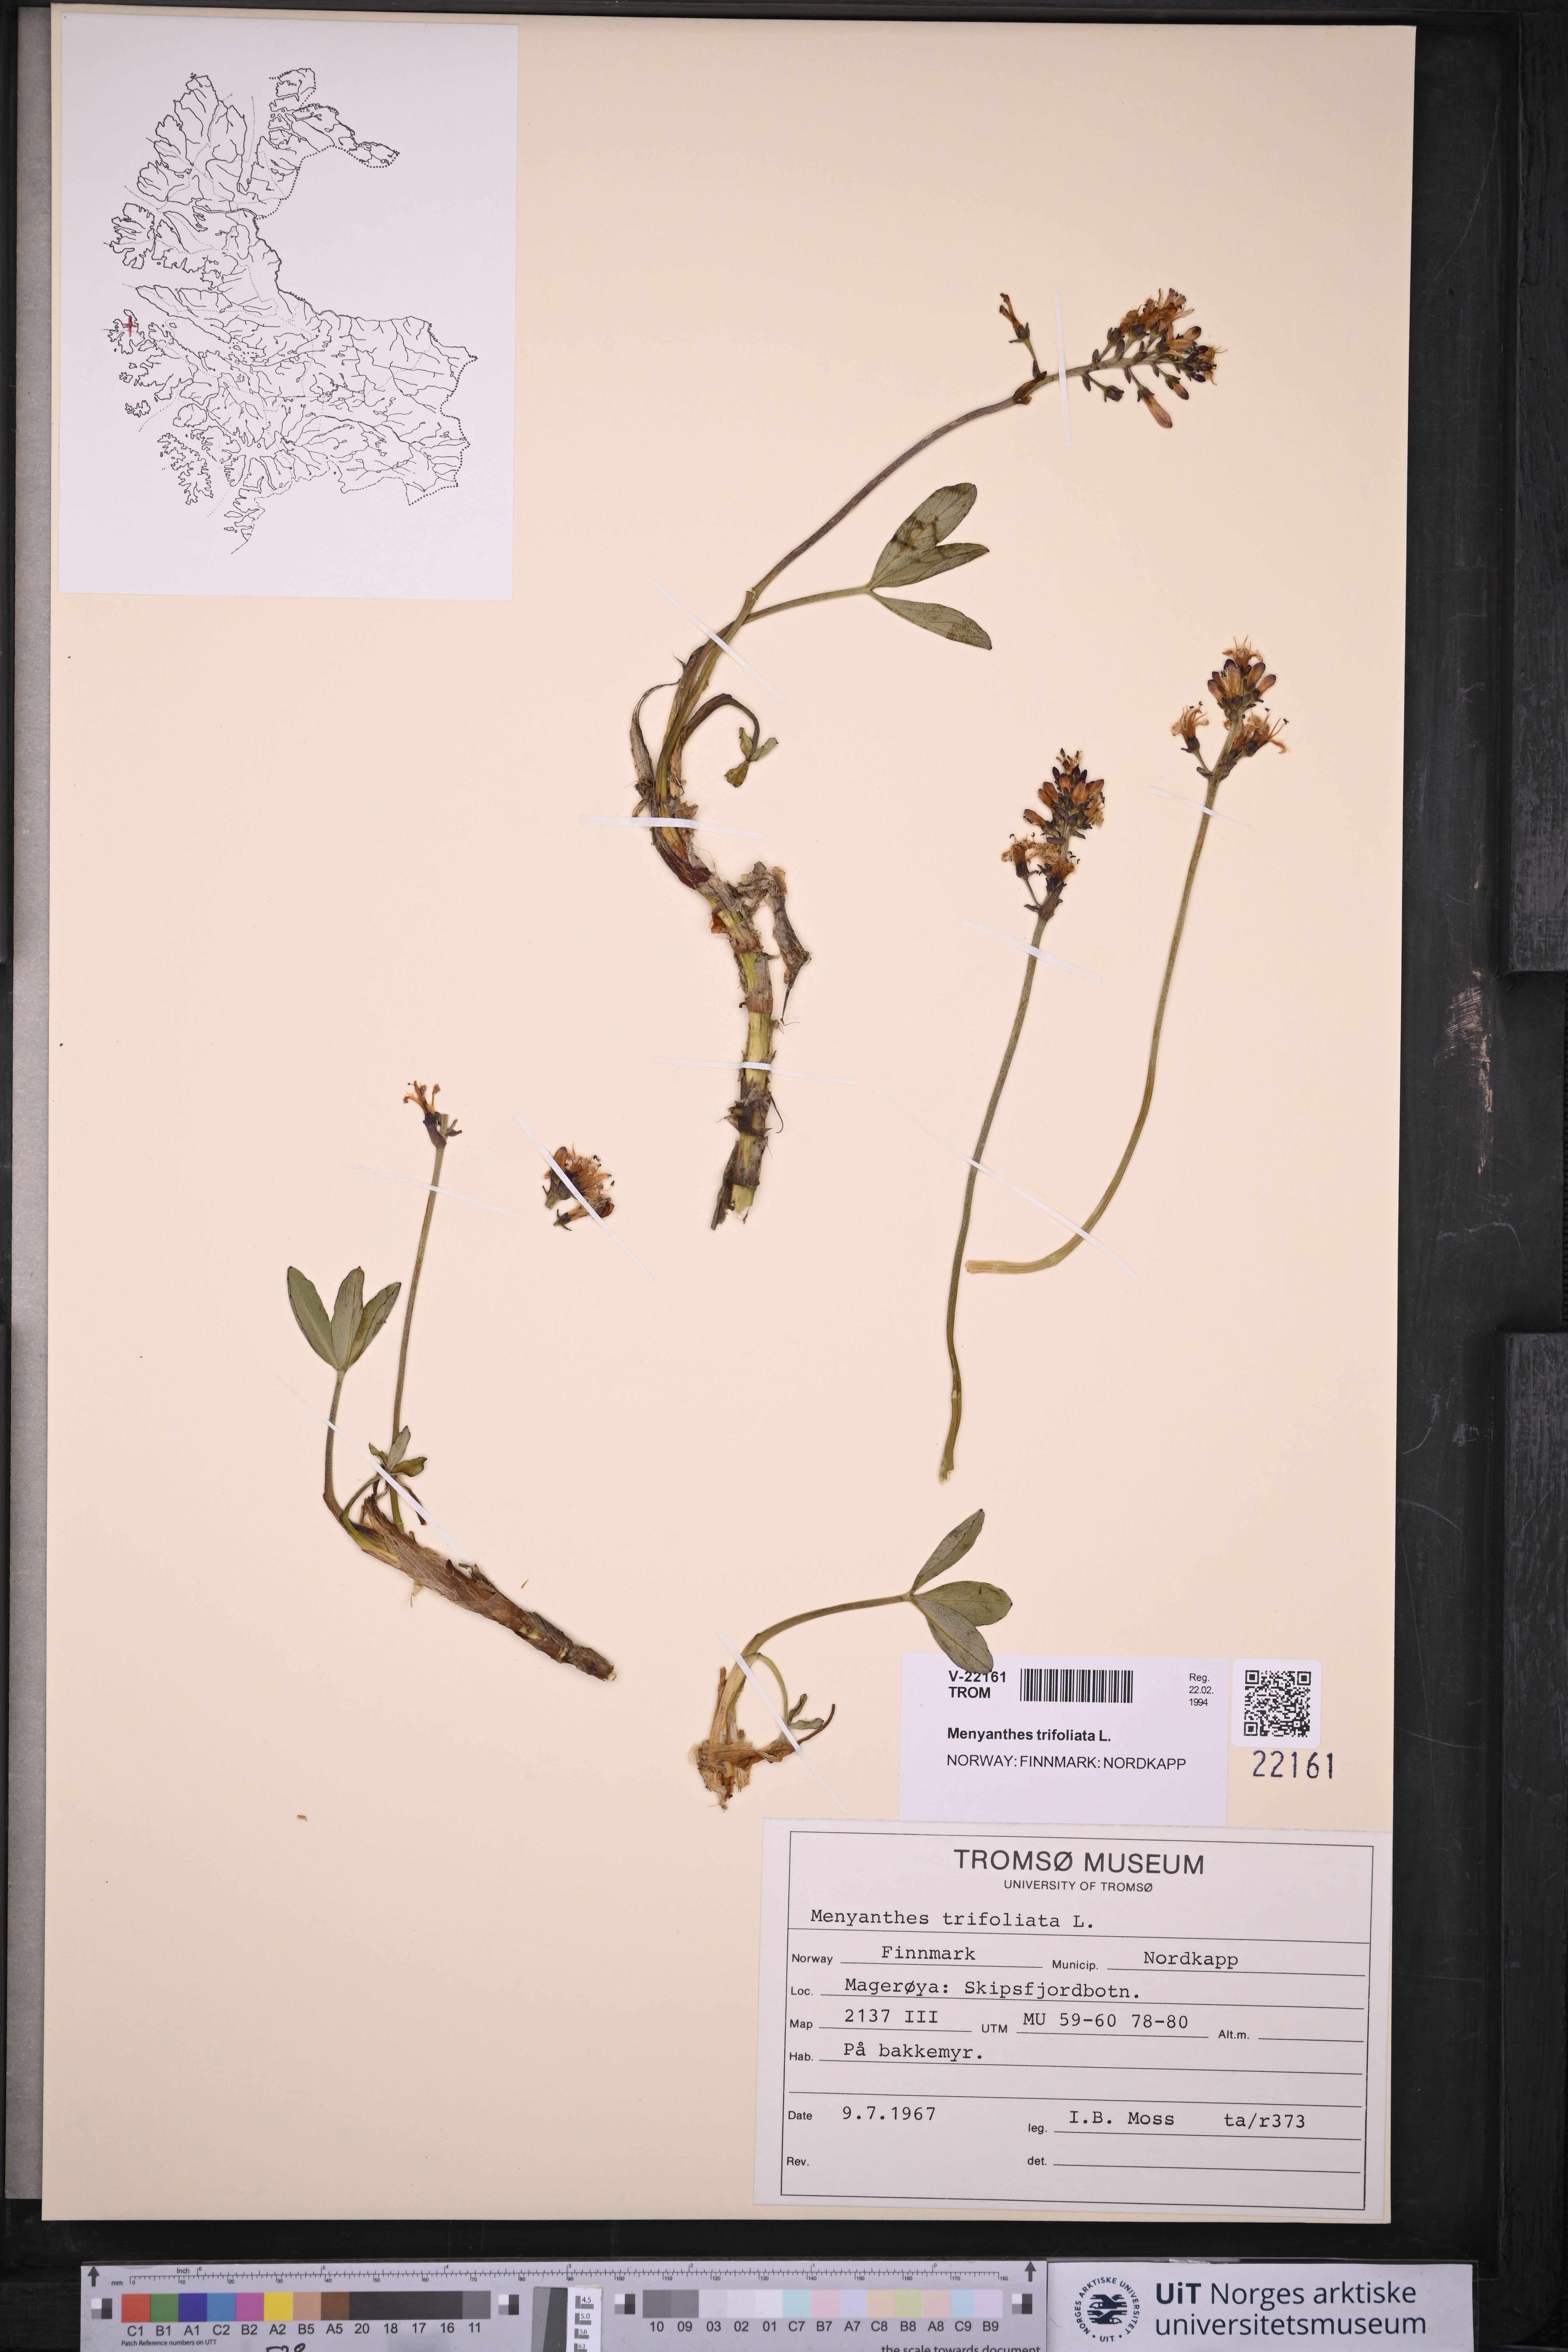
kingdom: Plantae
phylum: Tracheophyta
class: Magnoliopsida
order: Asterales
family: Menyanthaceae
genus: Menyanthes
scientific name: Menyanthes trifoliata
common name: Bogbean
